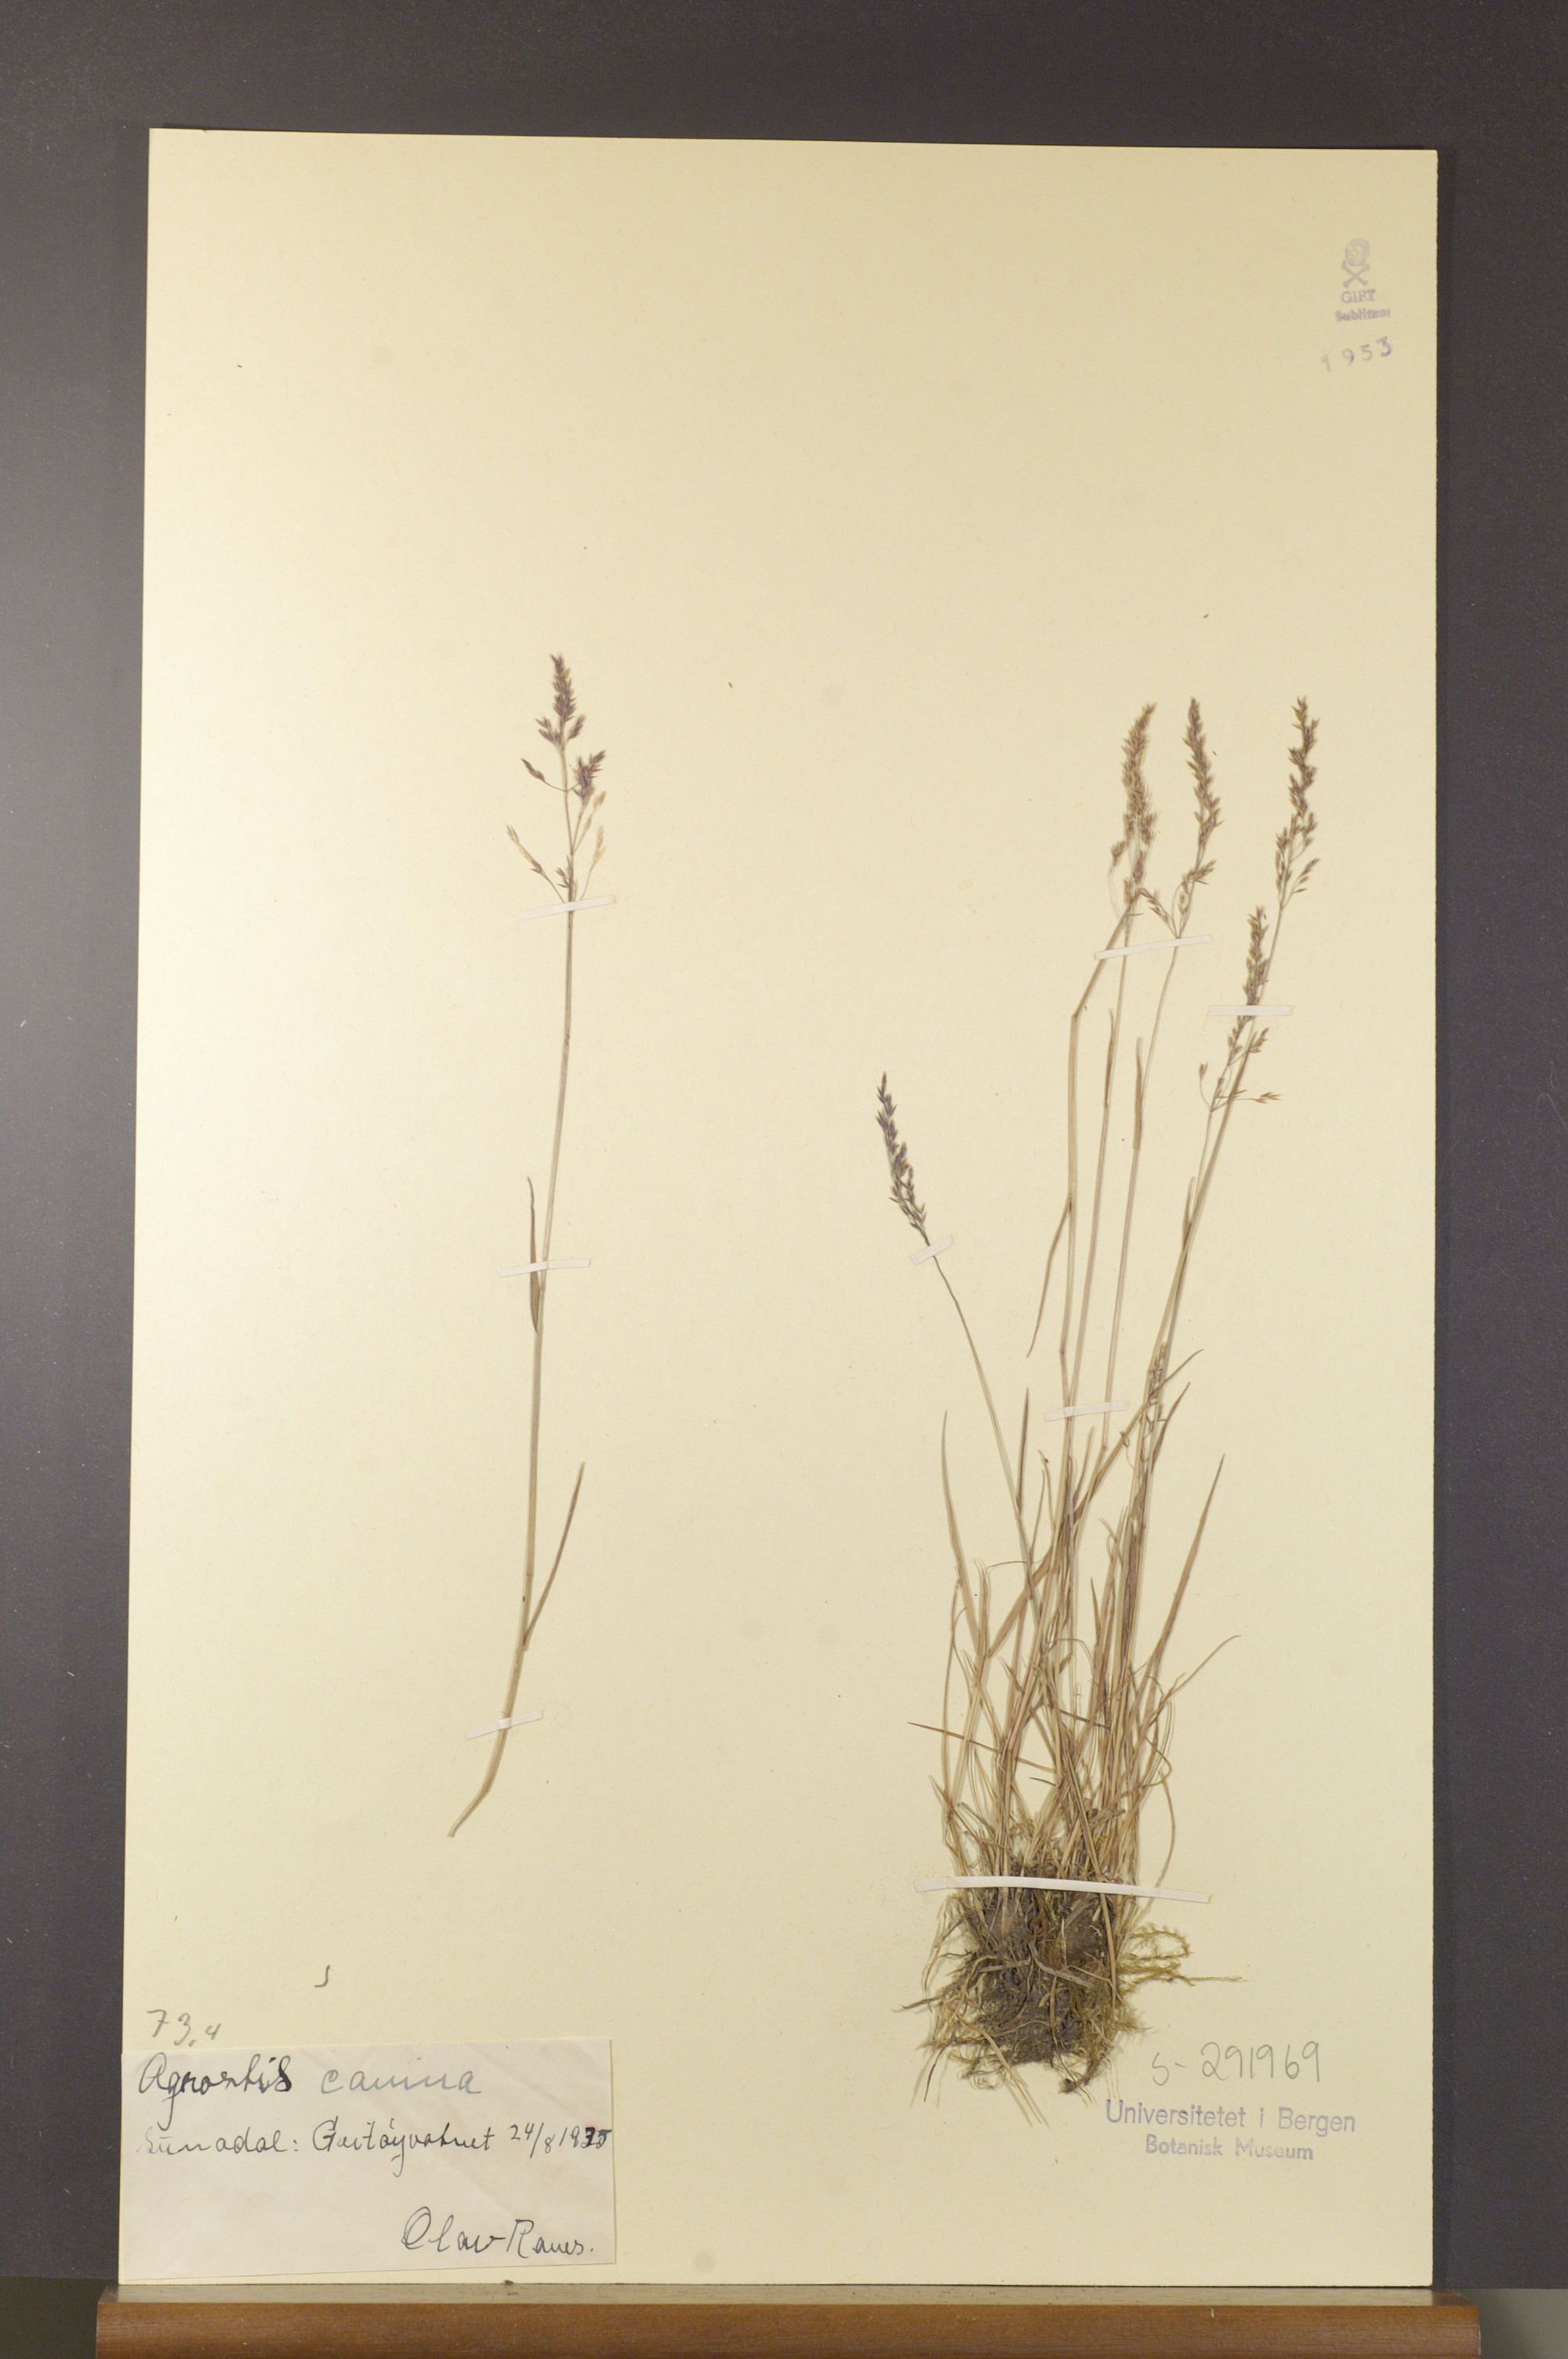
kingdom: Plantae
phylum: Tracheophyta
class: Liliopsida
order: Poales
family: Poaceae
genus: Agrostis
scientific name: Agrostis canina
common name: Velvet bent
